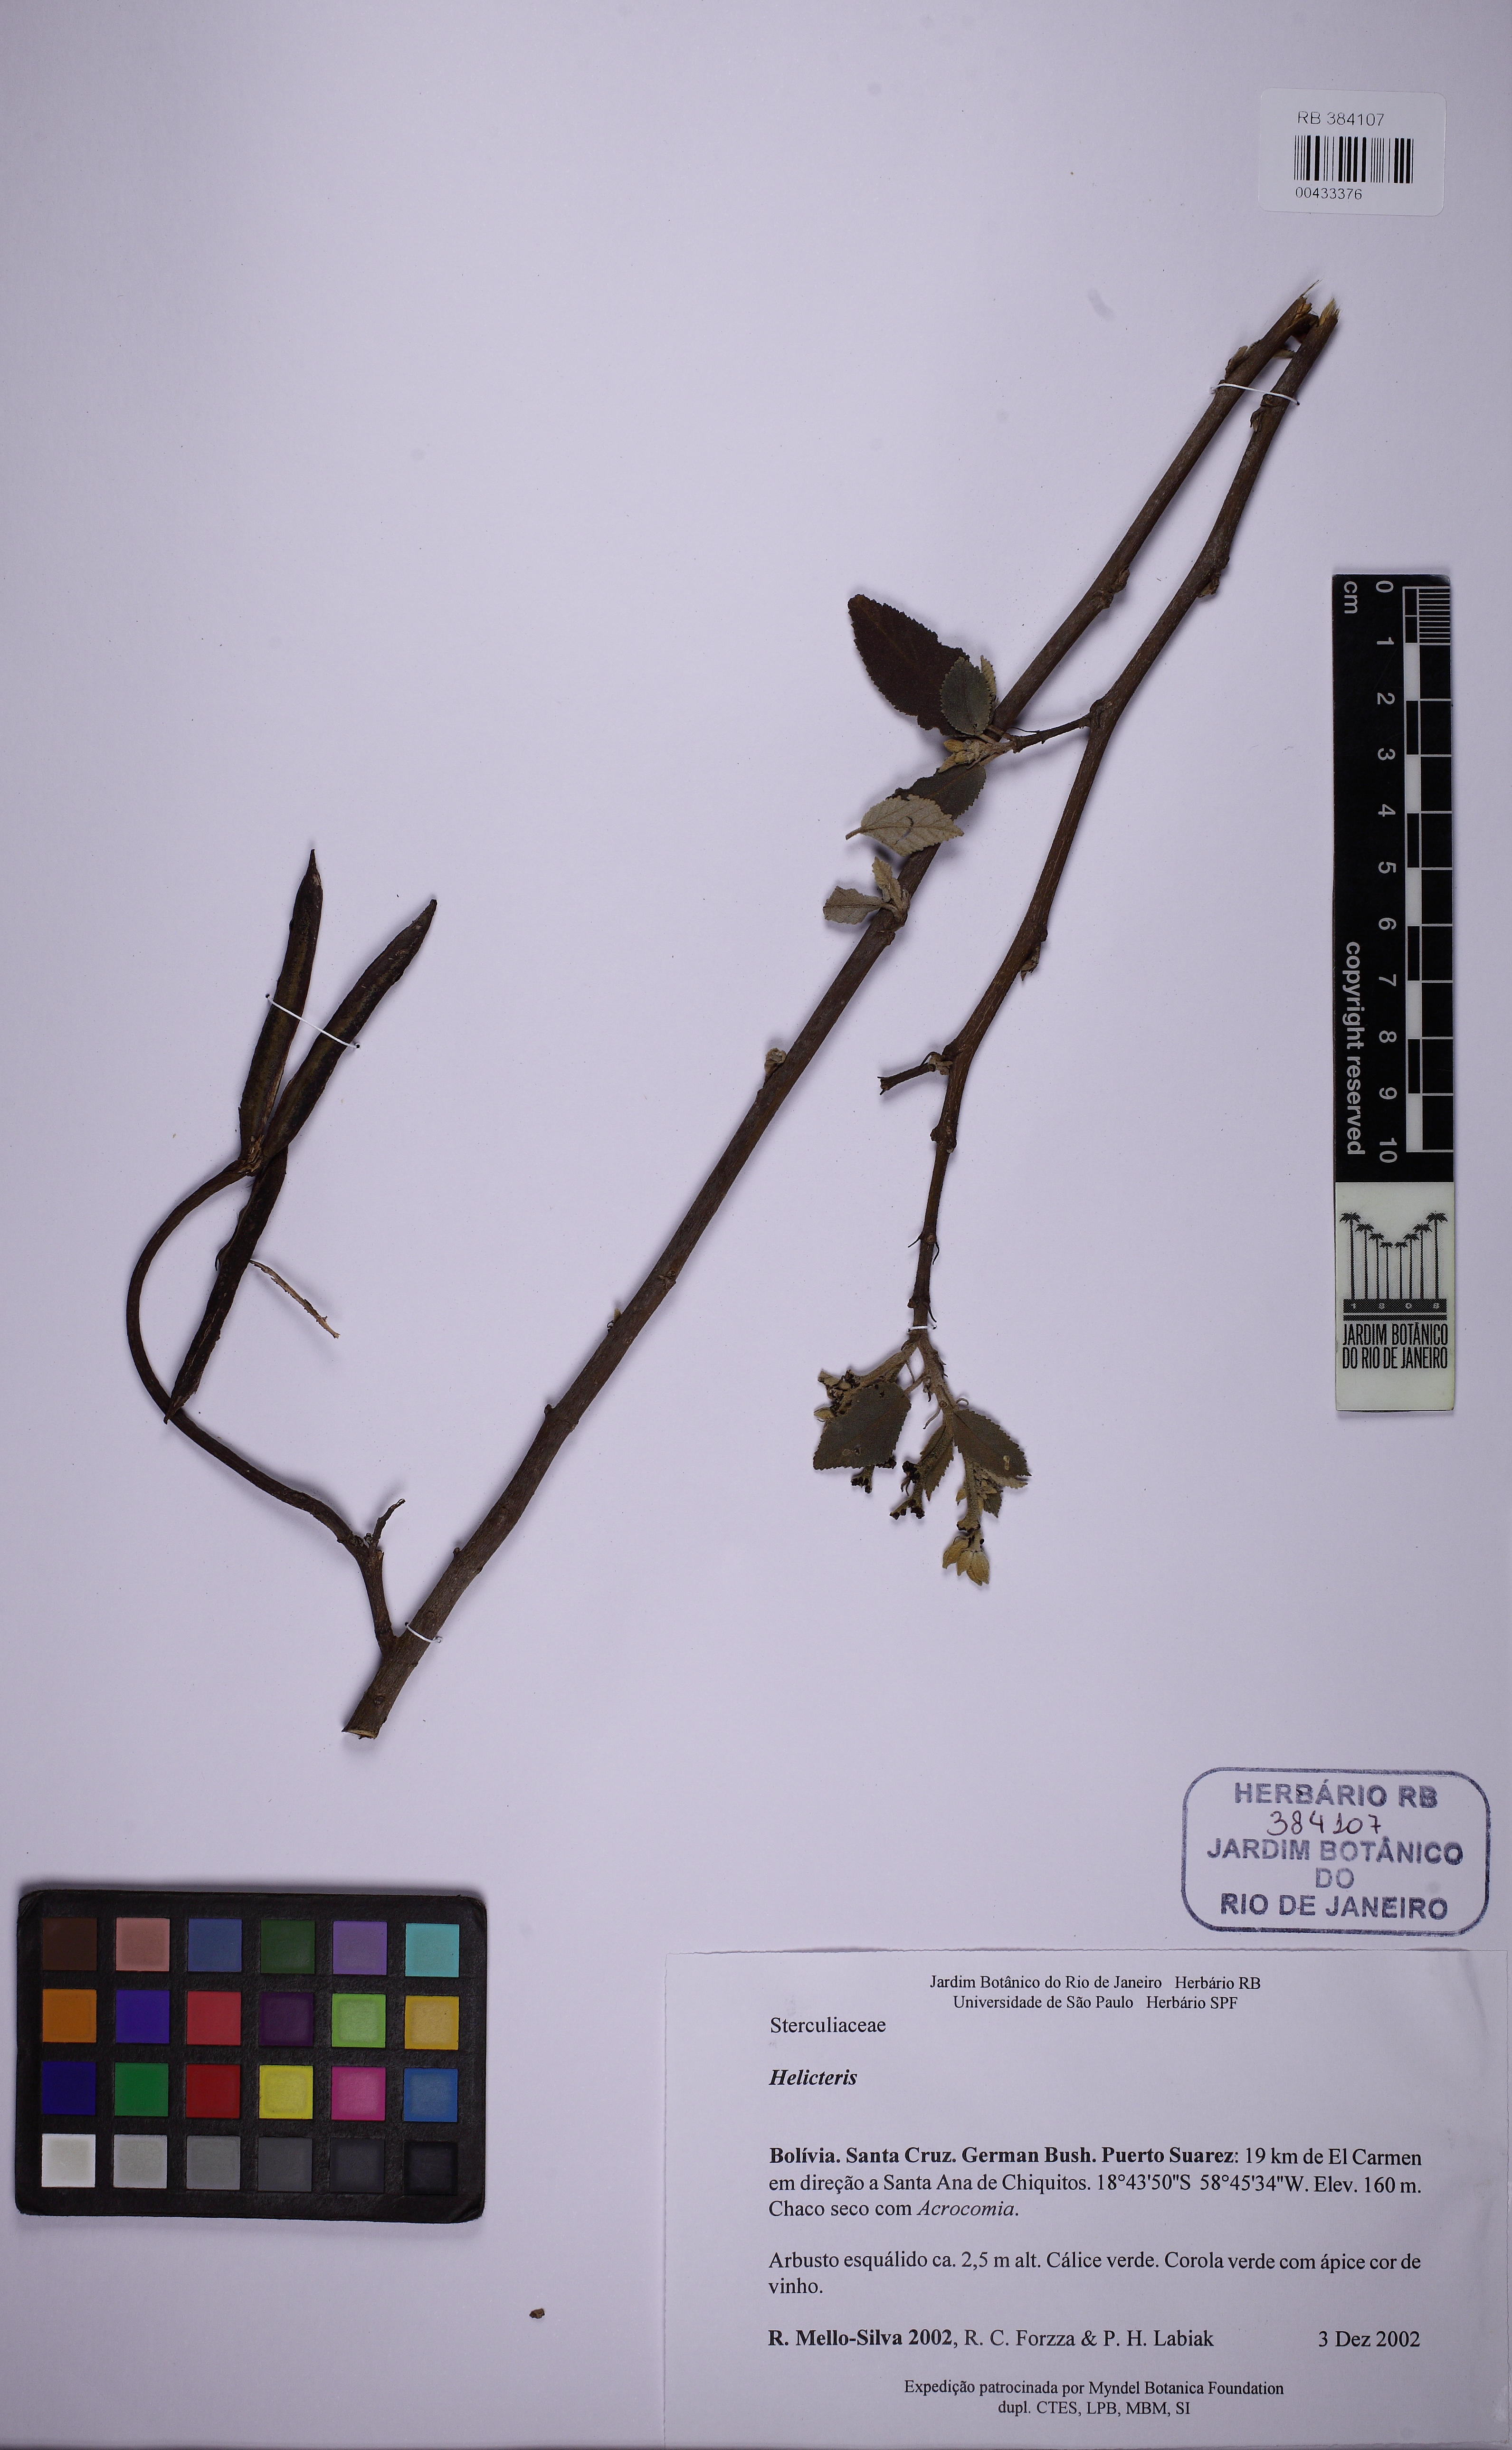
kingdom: Plantae
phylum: Tracheophyta
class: Magnoliopsida
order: Malvales
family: Malvaceae
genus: Helicteres
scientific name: Helicteres
